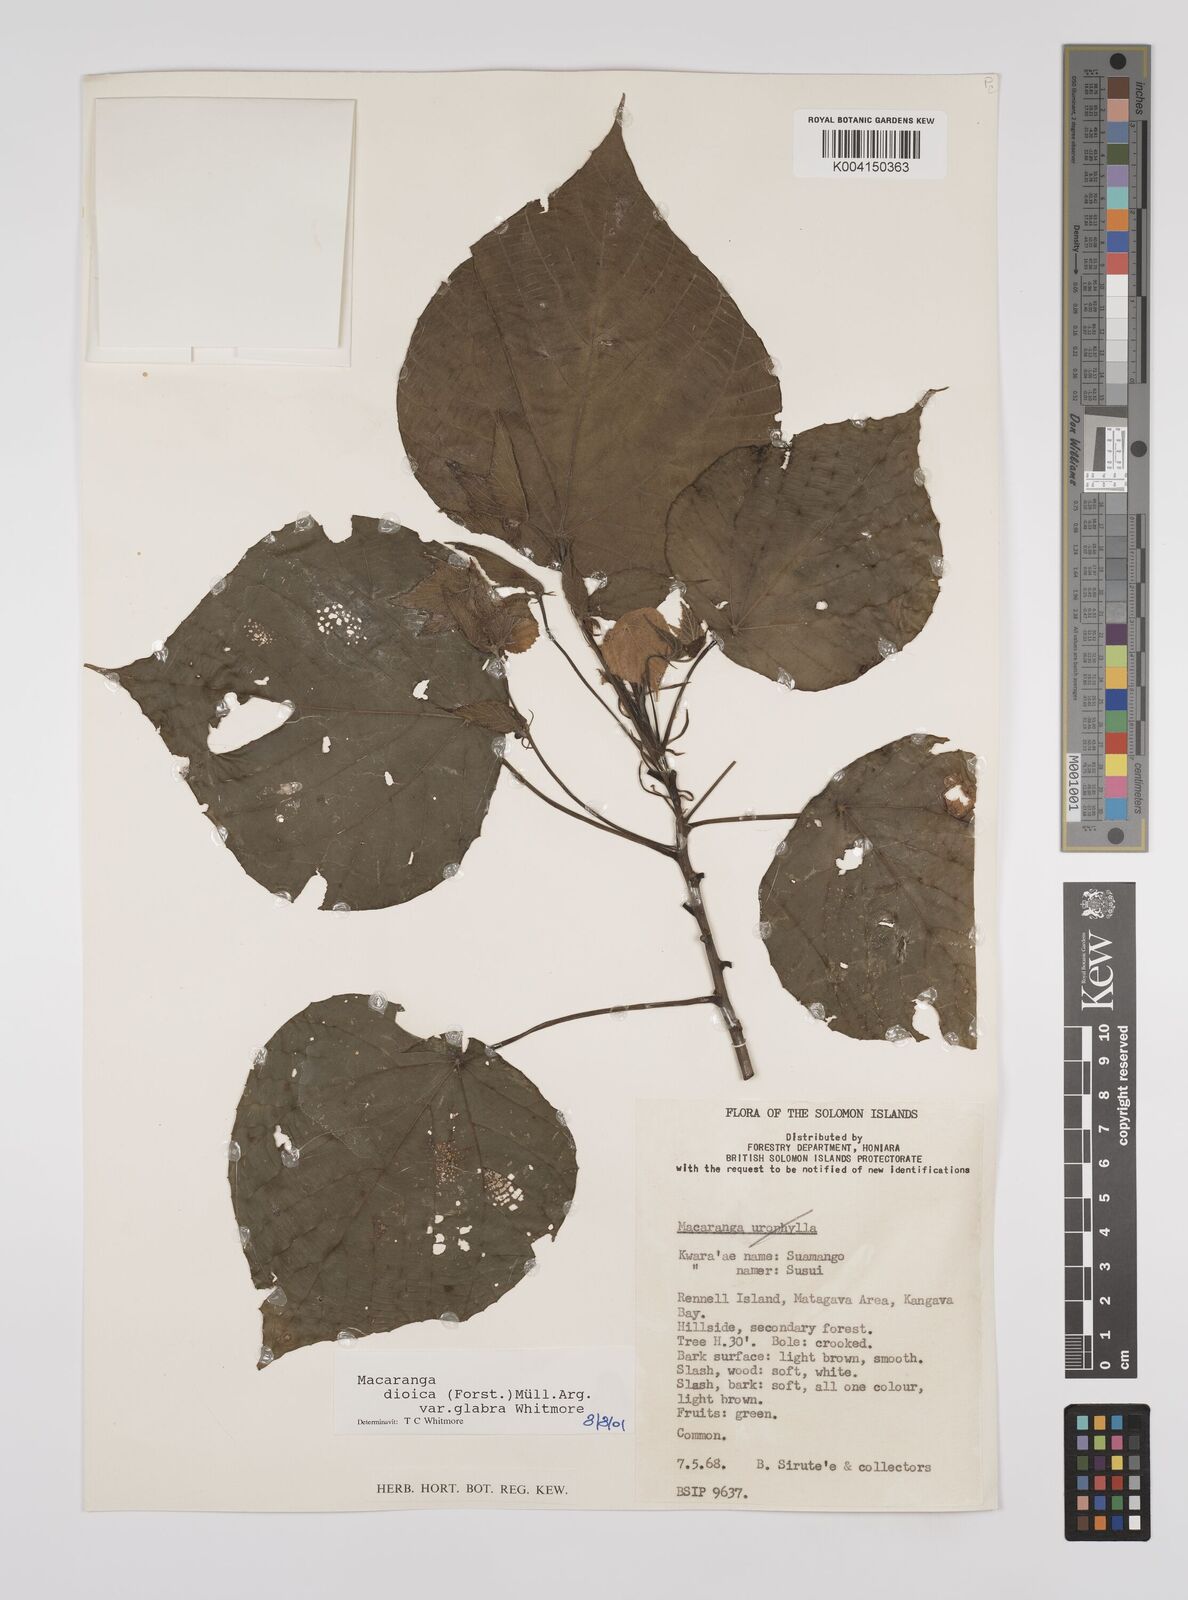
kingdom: Plantae
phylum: Tracheophyta
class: Magnoliopsida
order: Malpighiales
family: Euphorbiaceae
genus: Macaranga
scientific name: Macaranga dioica
